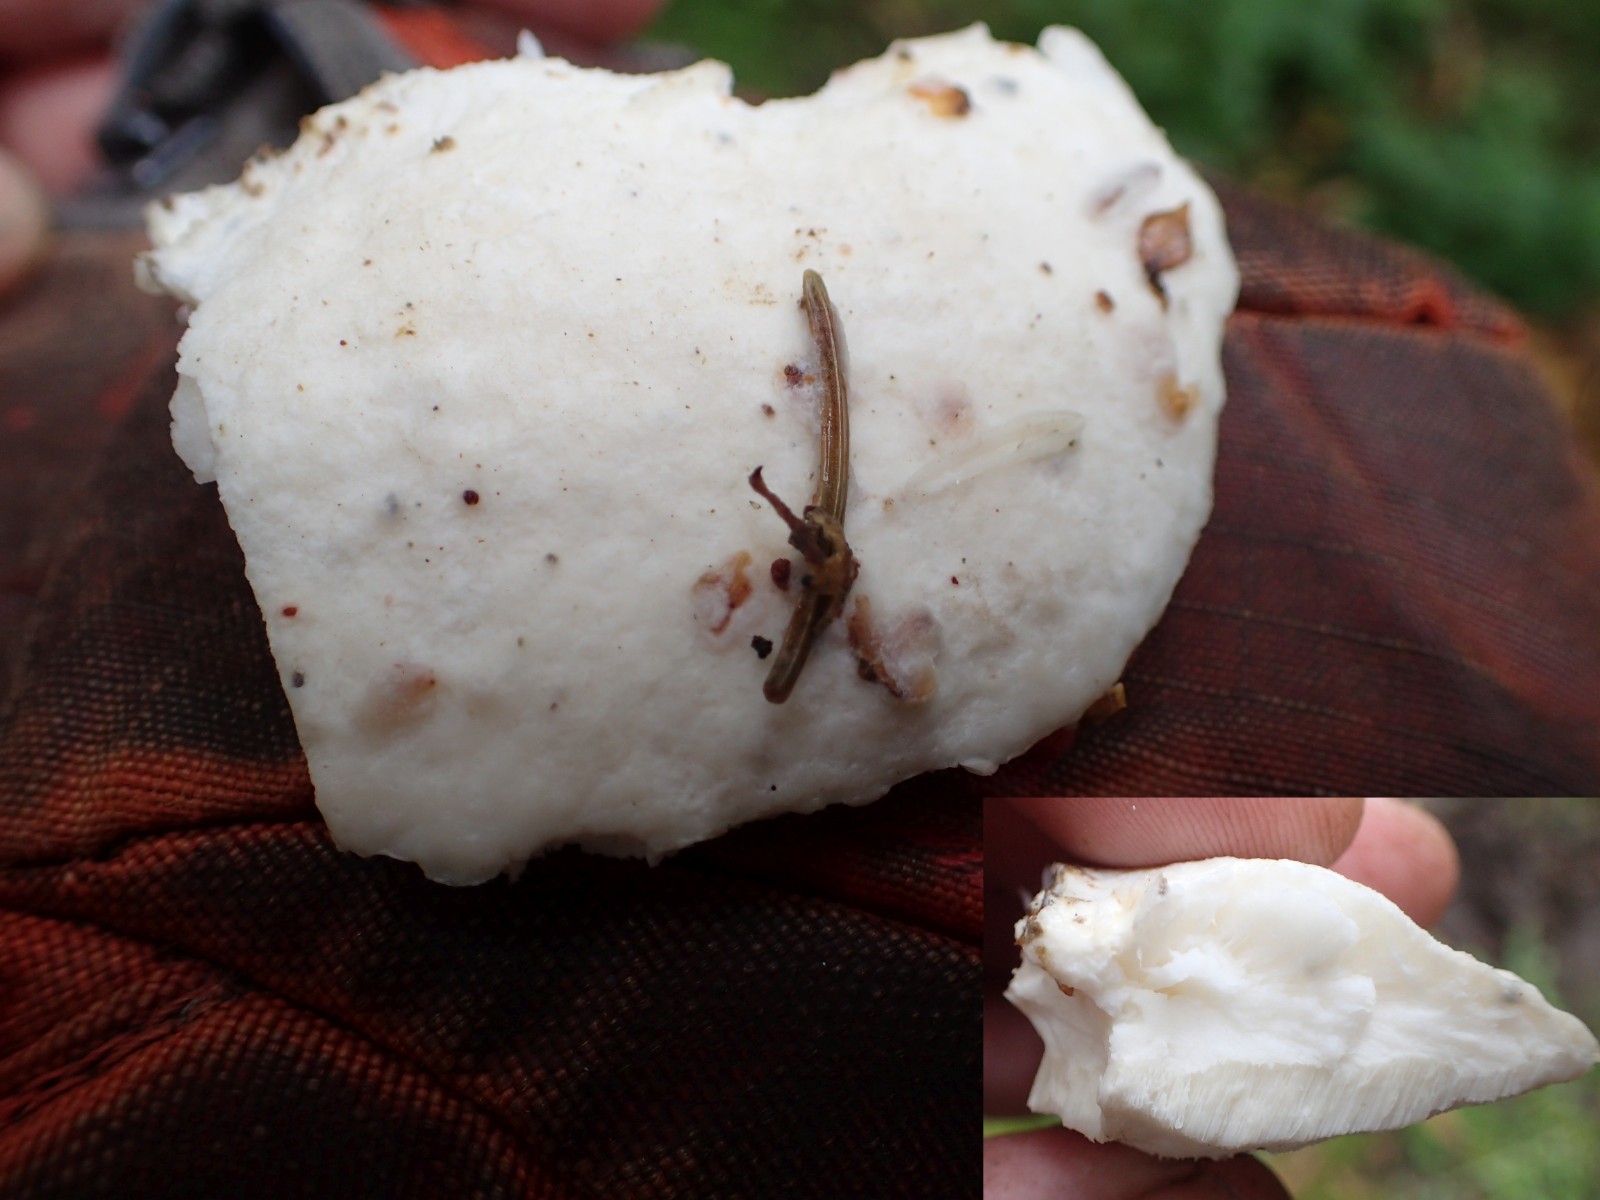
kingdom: Fungi
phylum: Basidiomycota
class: Agaricomycetes
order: Polyporales
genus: Amaropostia
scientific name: Amaropostia stiptica
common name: bitter kødporesvamp
